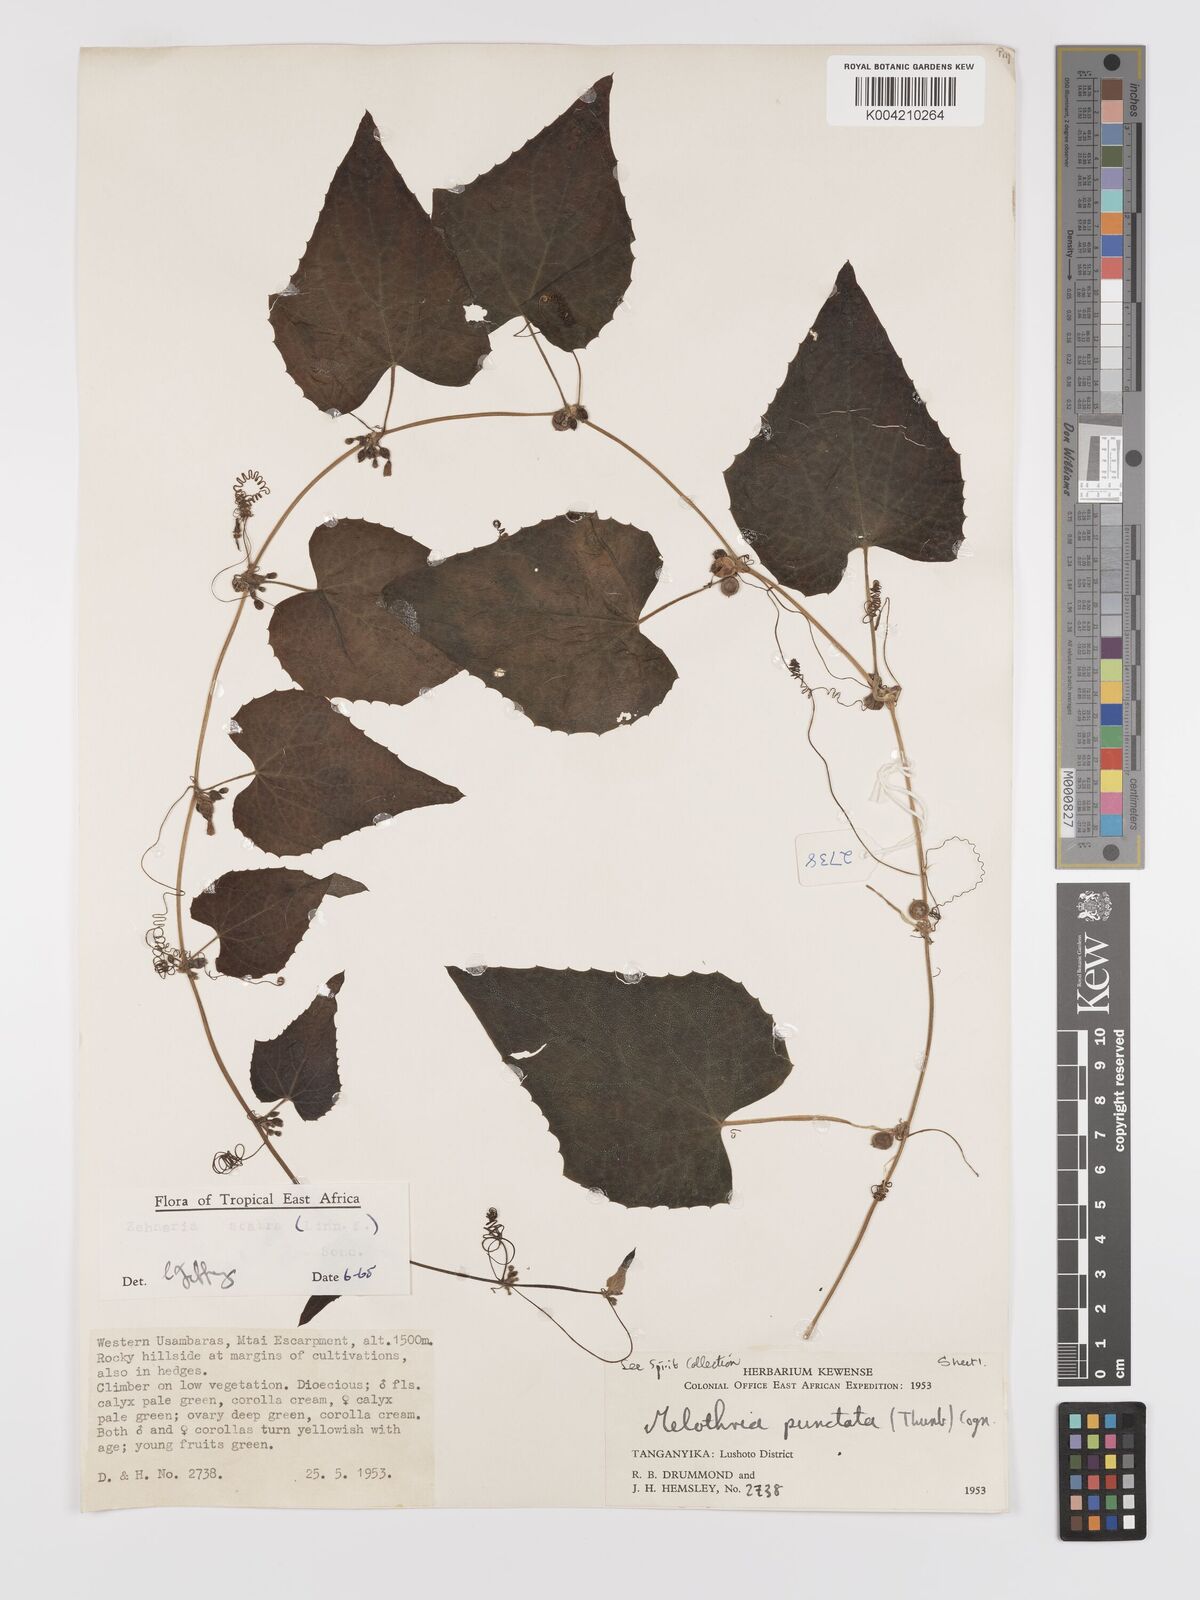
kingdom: Plantae
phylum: Tracheophyta
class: Magnoliopsida
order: Cucurbitales
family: Cucurbitaceae
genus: Zehneria
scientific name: Zehneria scabra
